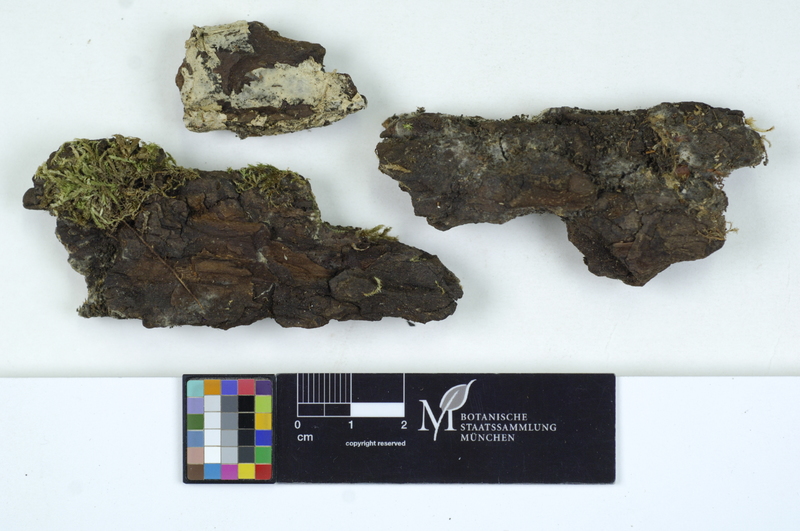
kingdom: Fungi
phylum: Basidiomycota
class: Agaricomycetes
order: Sebacinales
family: Sebacinaceae
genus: Helvellosebacina
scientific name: Helvellosebacina helvelloides
